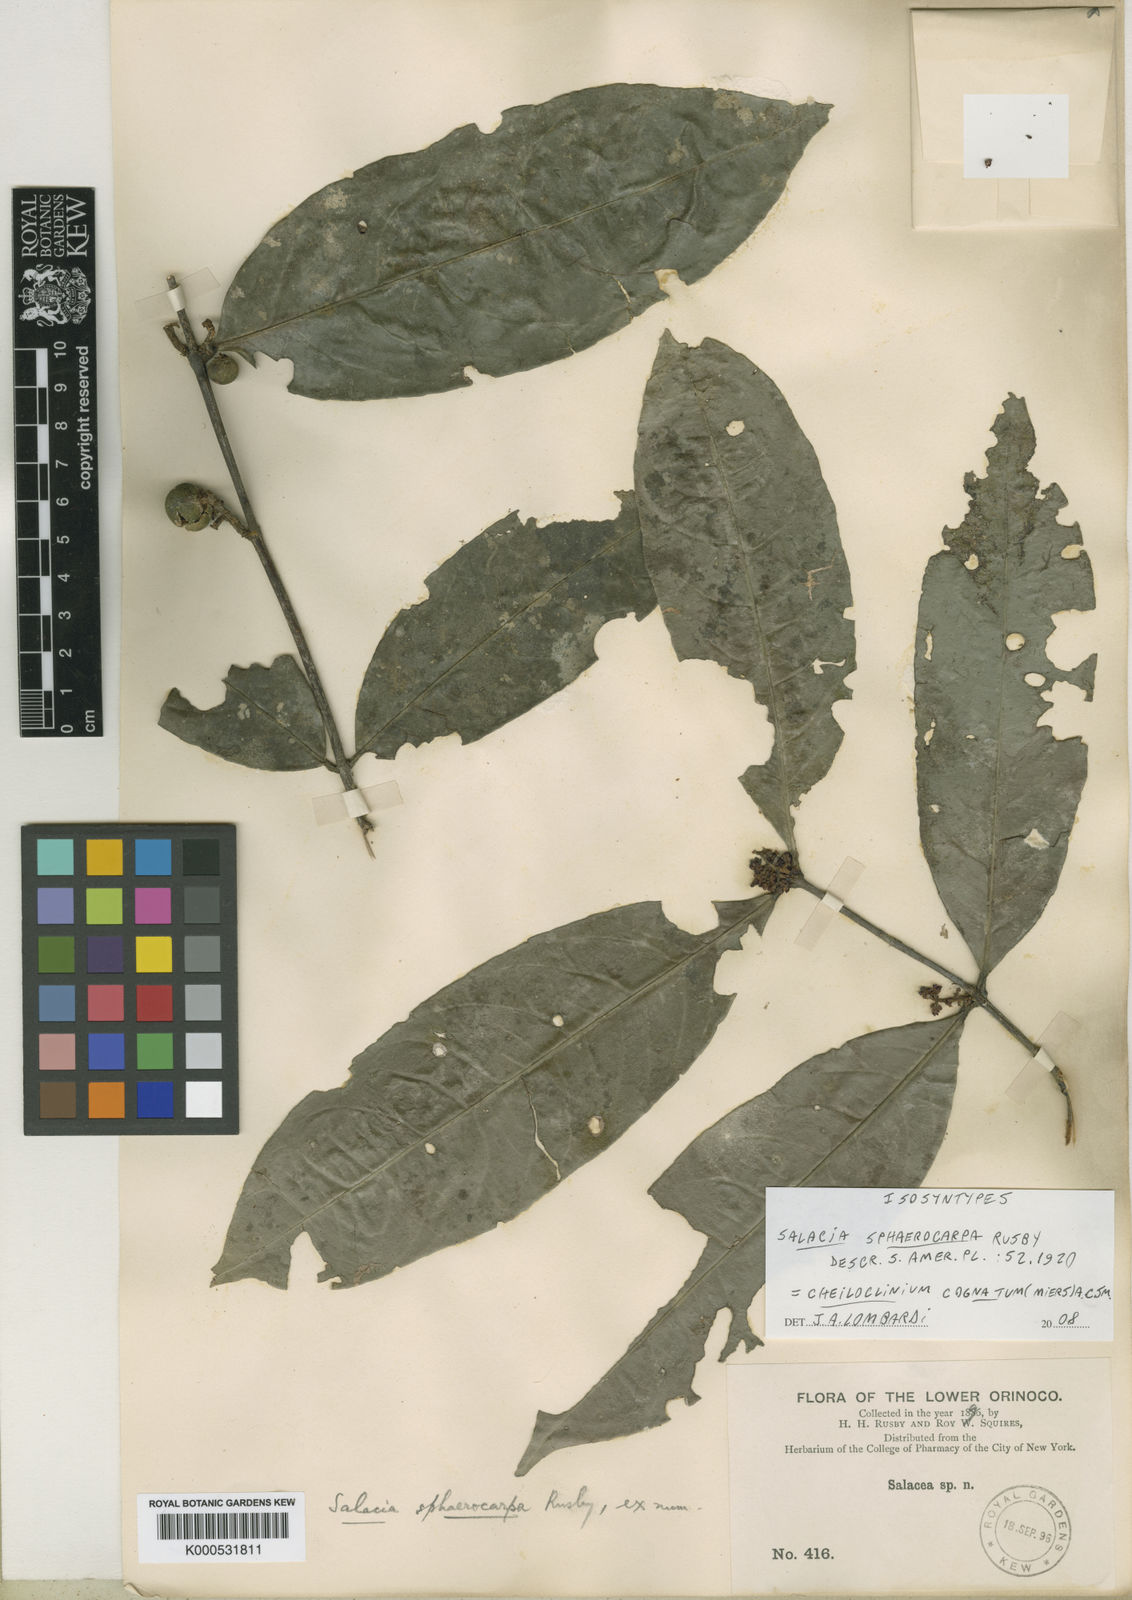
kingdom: Plantae
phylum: Tracheophyta
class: Magnoliopsida
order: Celastrales
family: Celastraceae
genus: Cheiloclinium
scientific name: Cheiloclinium cognatum
